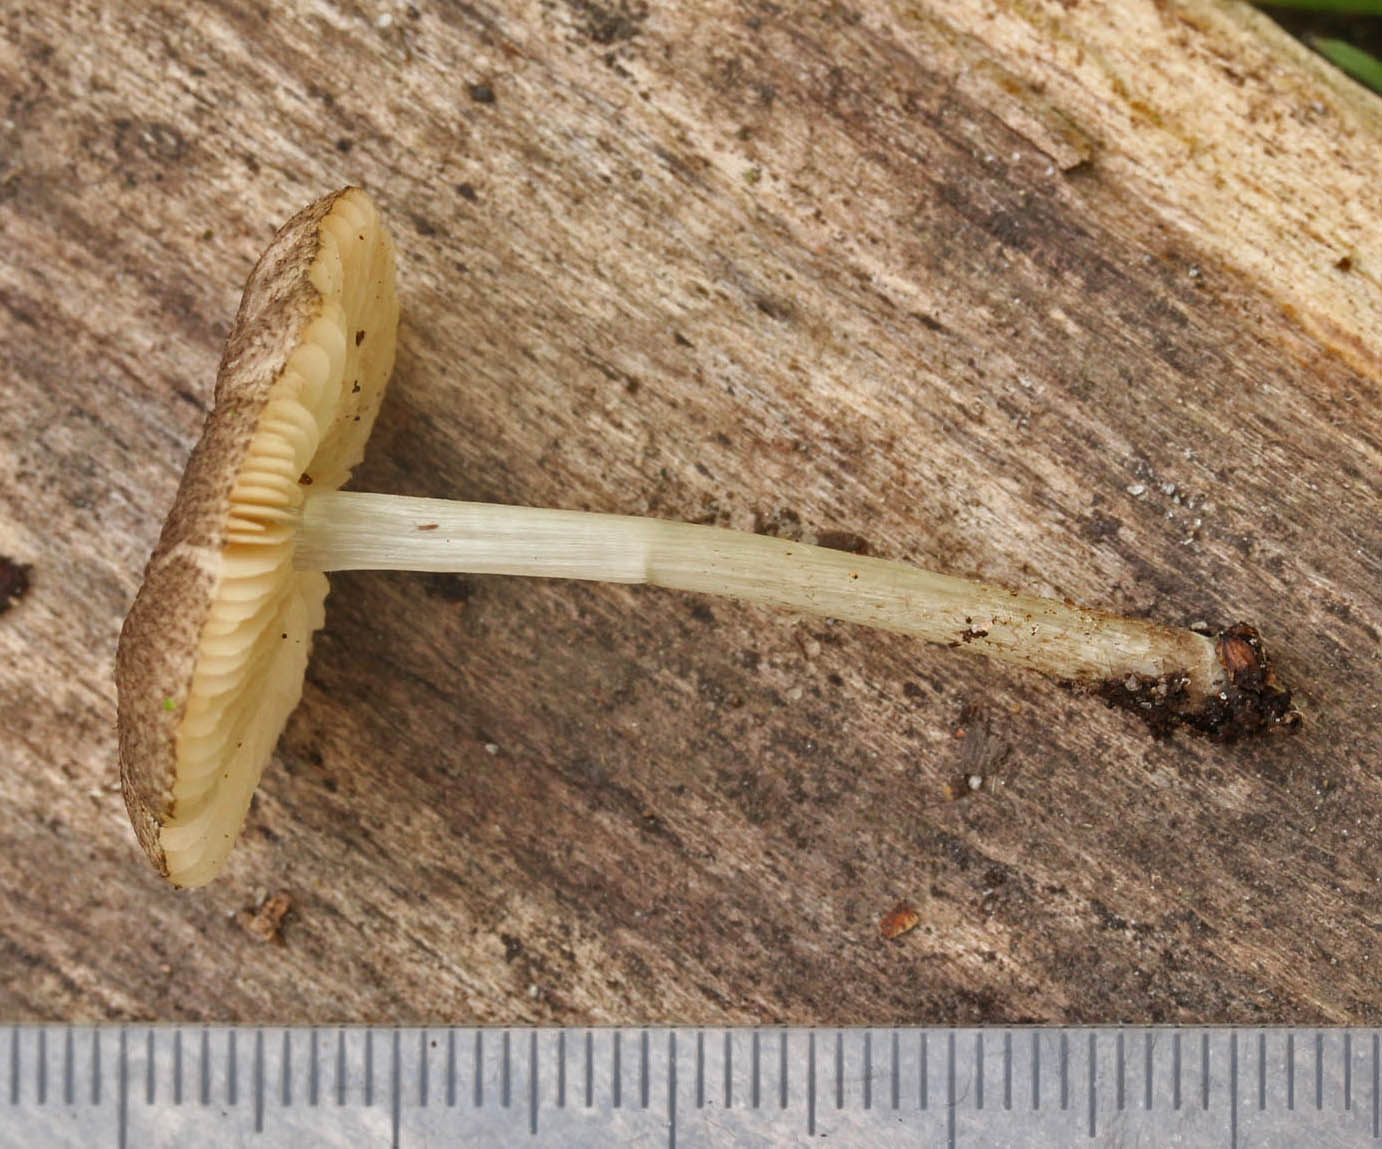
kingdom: Fungi
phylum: Basidiomycota
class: Agaricomycetes
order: Agaricales
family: Pluteaceae
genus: Pluteus
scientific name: Pluteus
